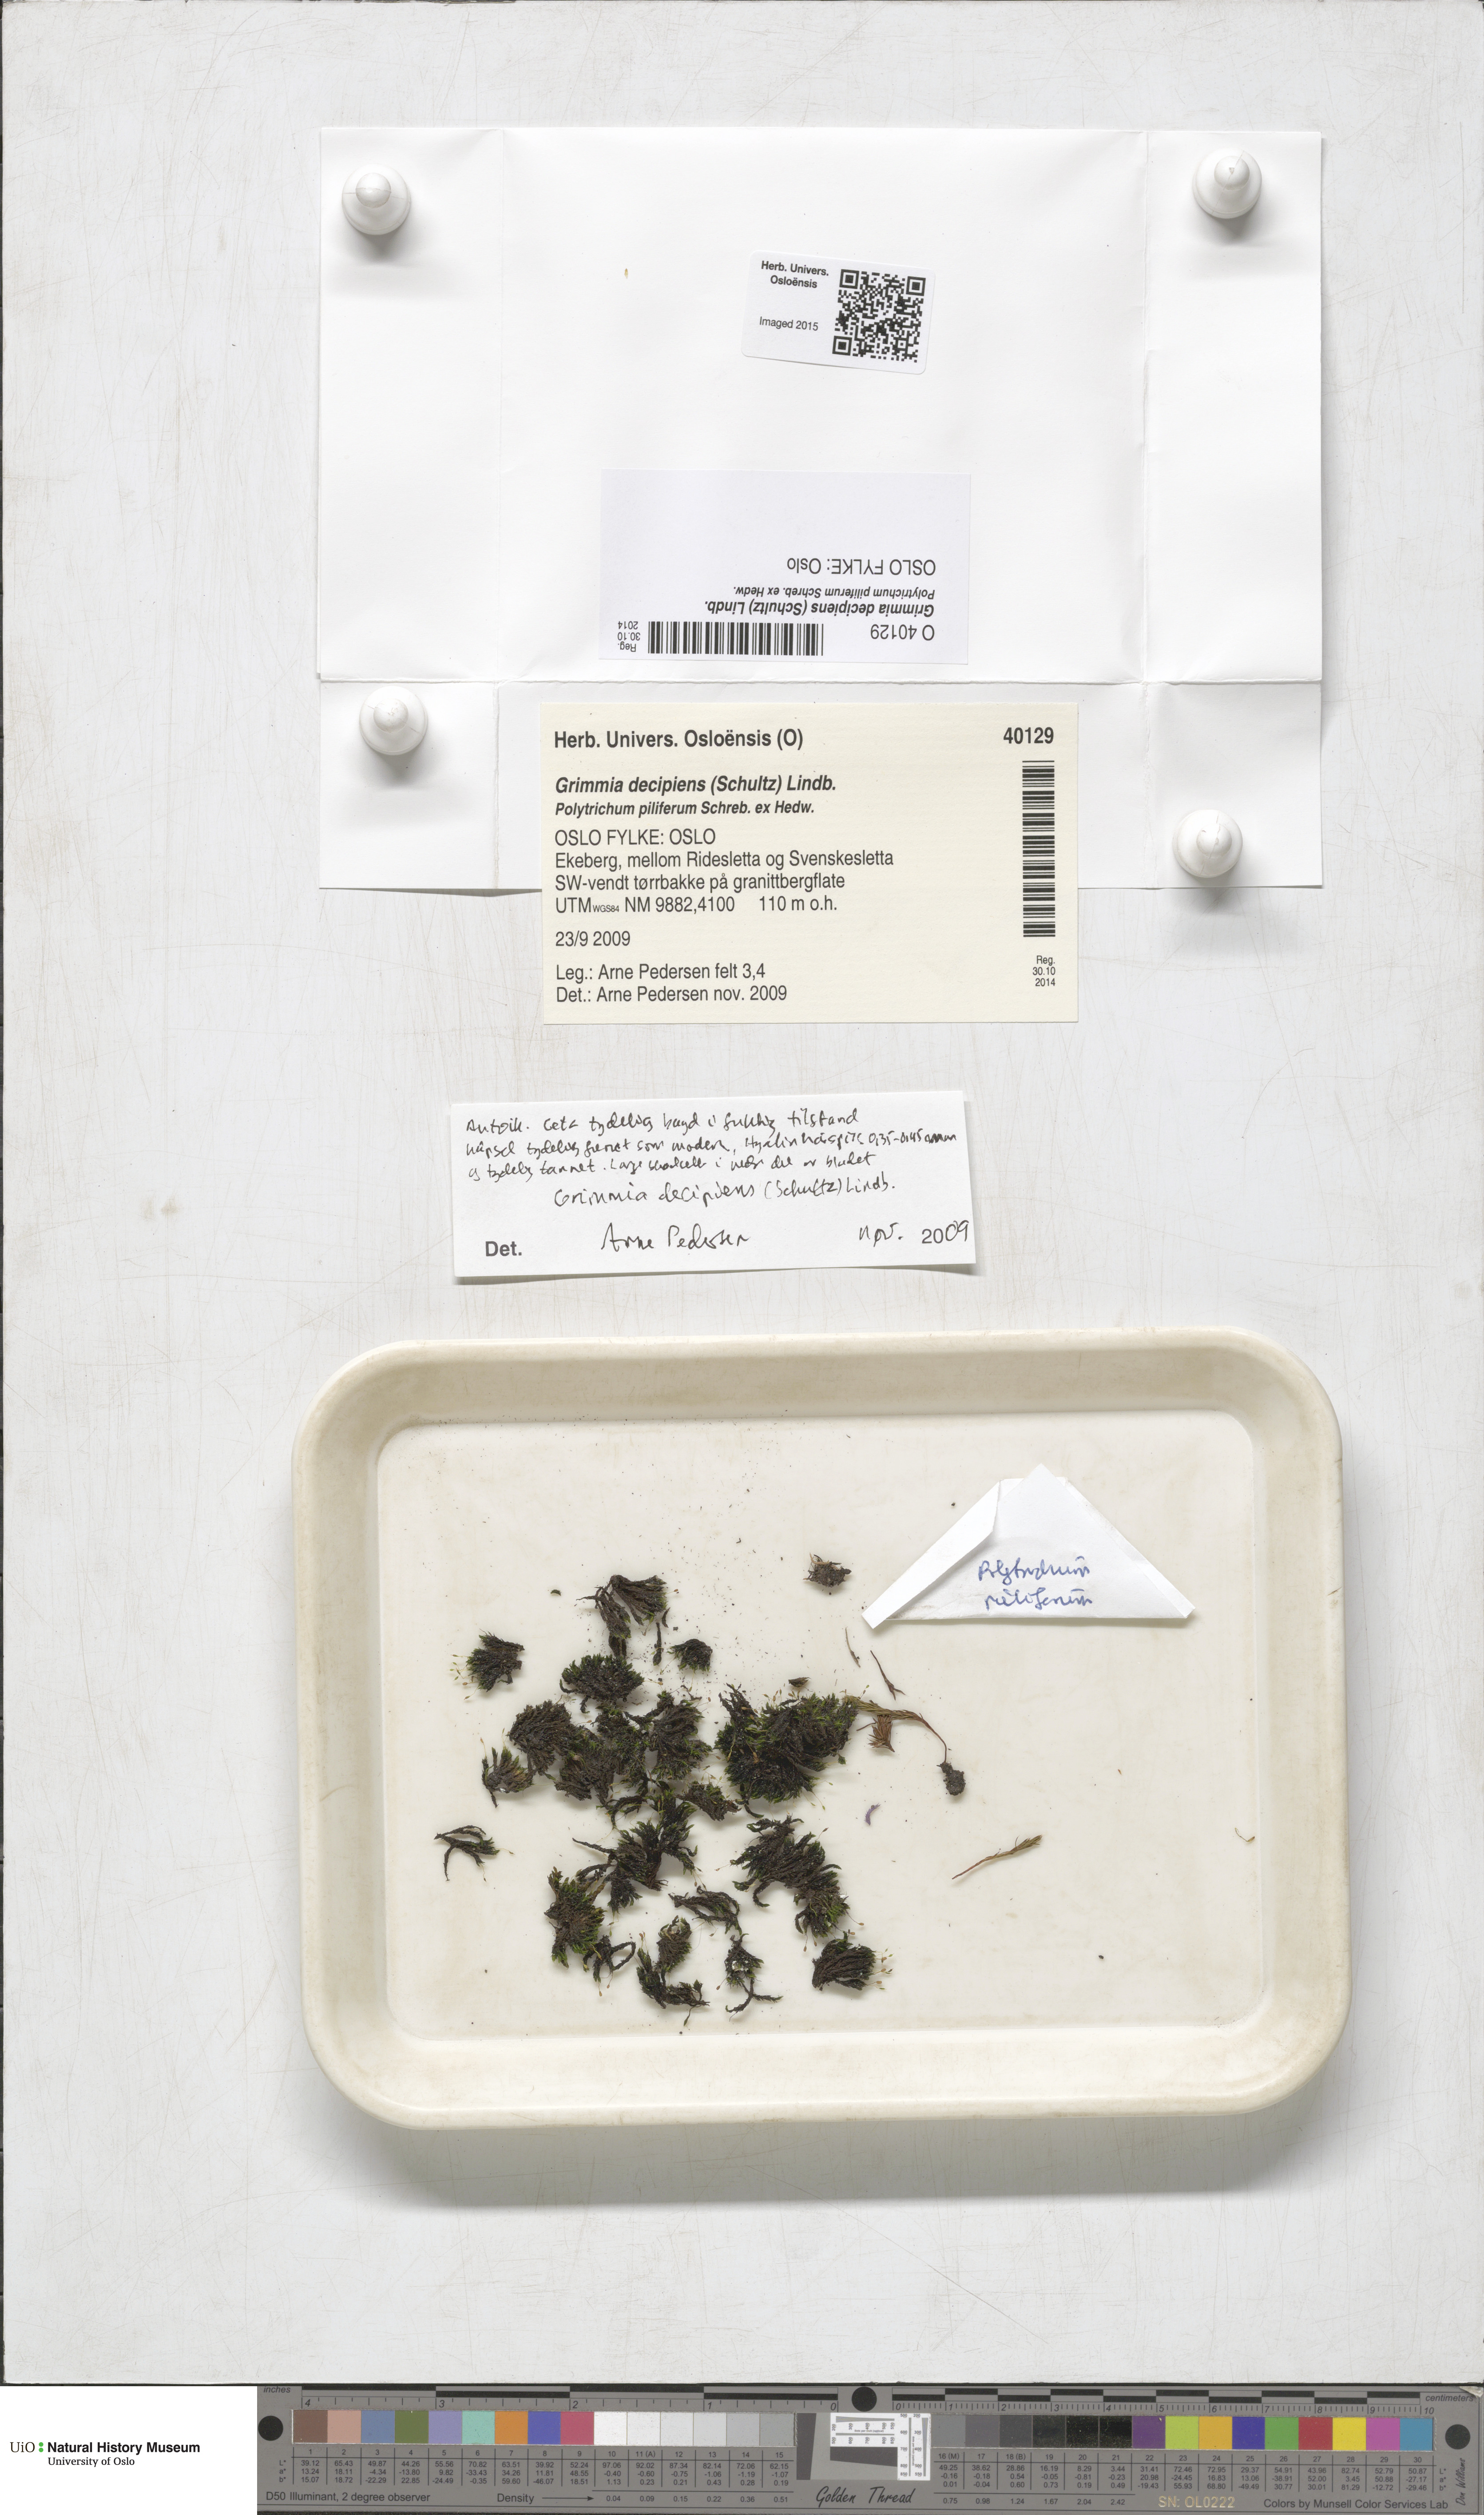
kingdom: Plantae
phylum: Bryophyta
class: Bryopsida
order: Grimmiales
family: Grimmiaceae
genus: Grimmia
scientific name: Grimmia decipiens
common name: Great grimmia
